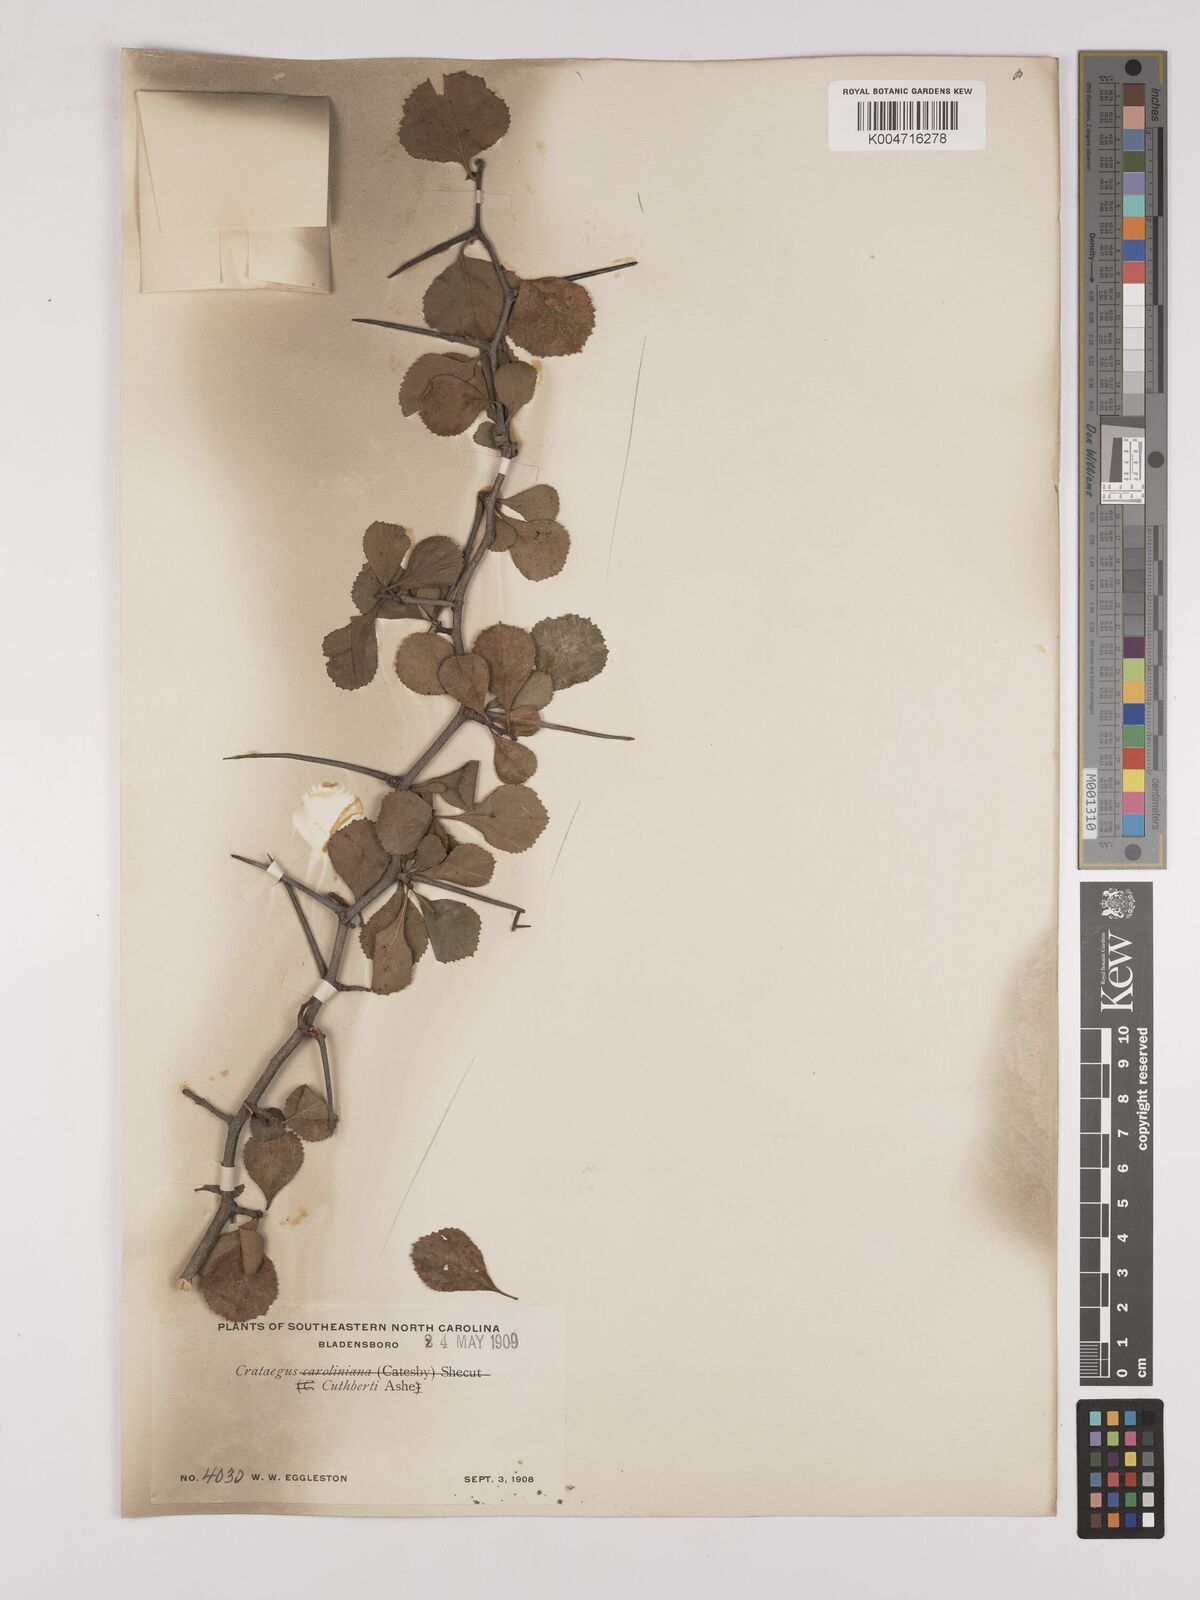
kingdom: Plantae
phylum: Tracheophyta
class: Magnoliopsida
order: Rosales
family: Rosaceae
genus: Crataegus
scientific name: Crataegus cuthbertii
